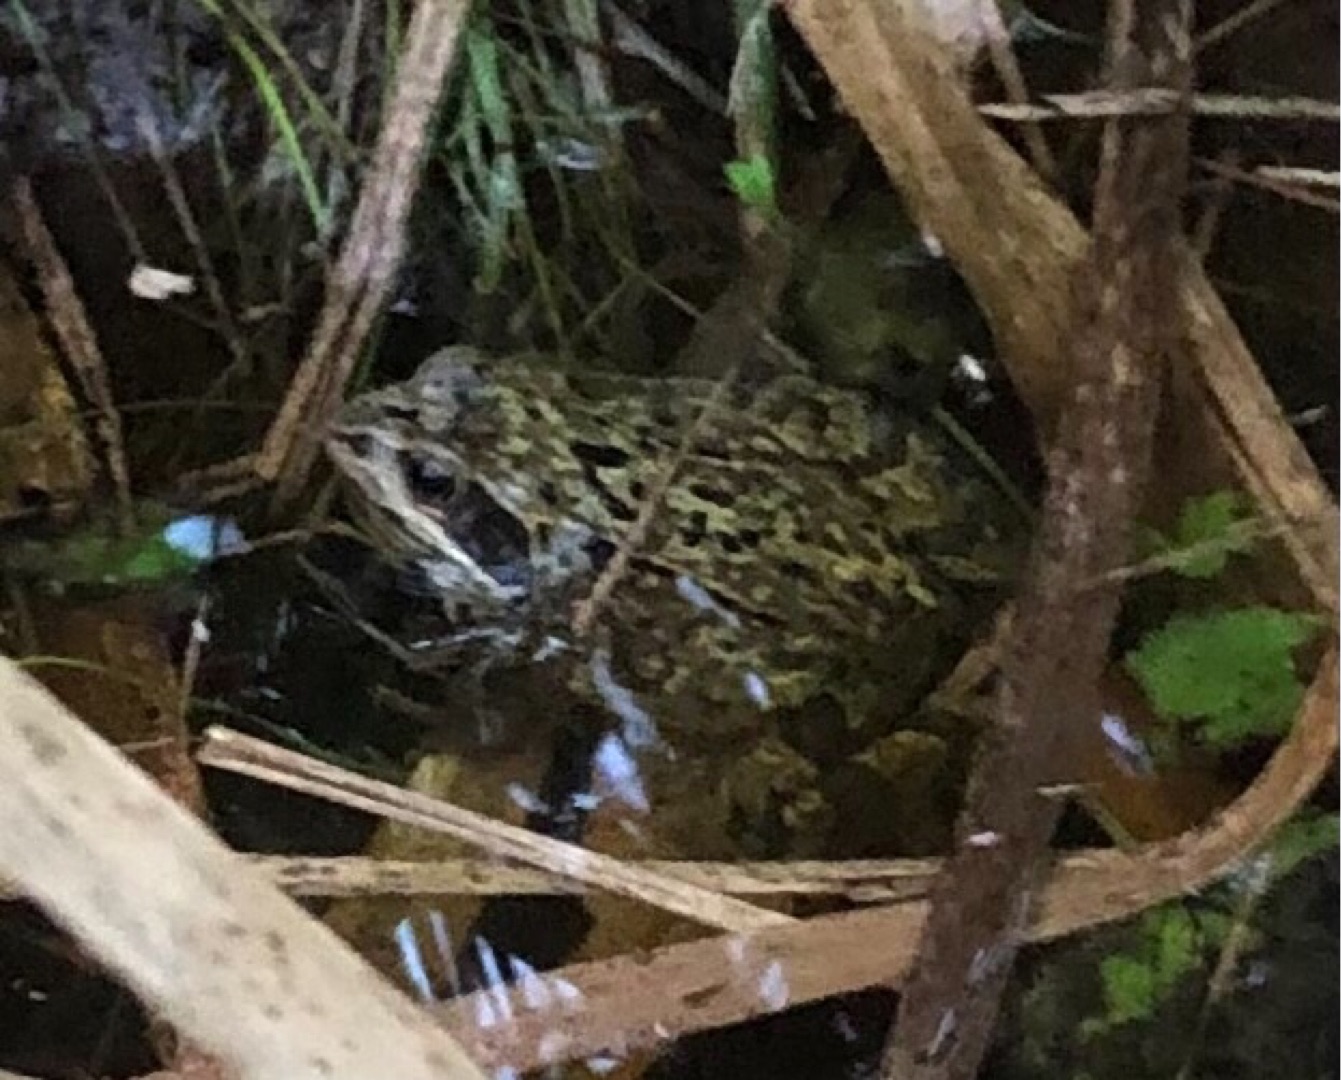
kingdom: Animalia
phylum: Chordata
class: Amphibia
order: Anura
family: Ranidae
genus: Rana
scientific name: Rana temporaria
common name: Butsnudet frø
